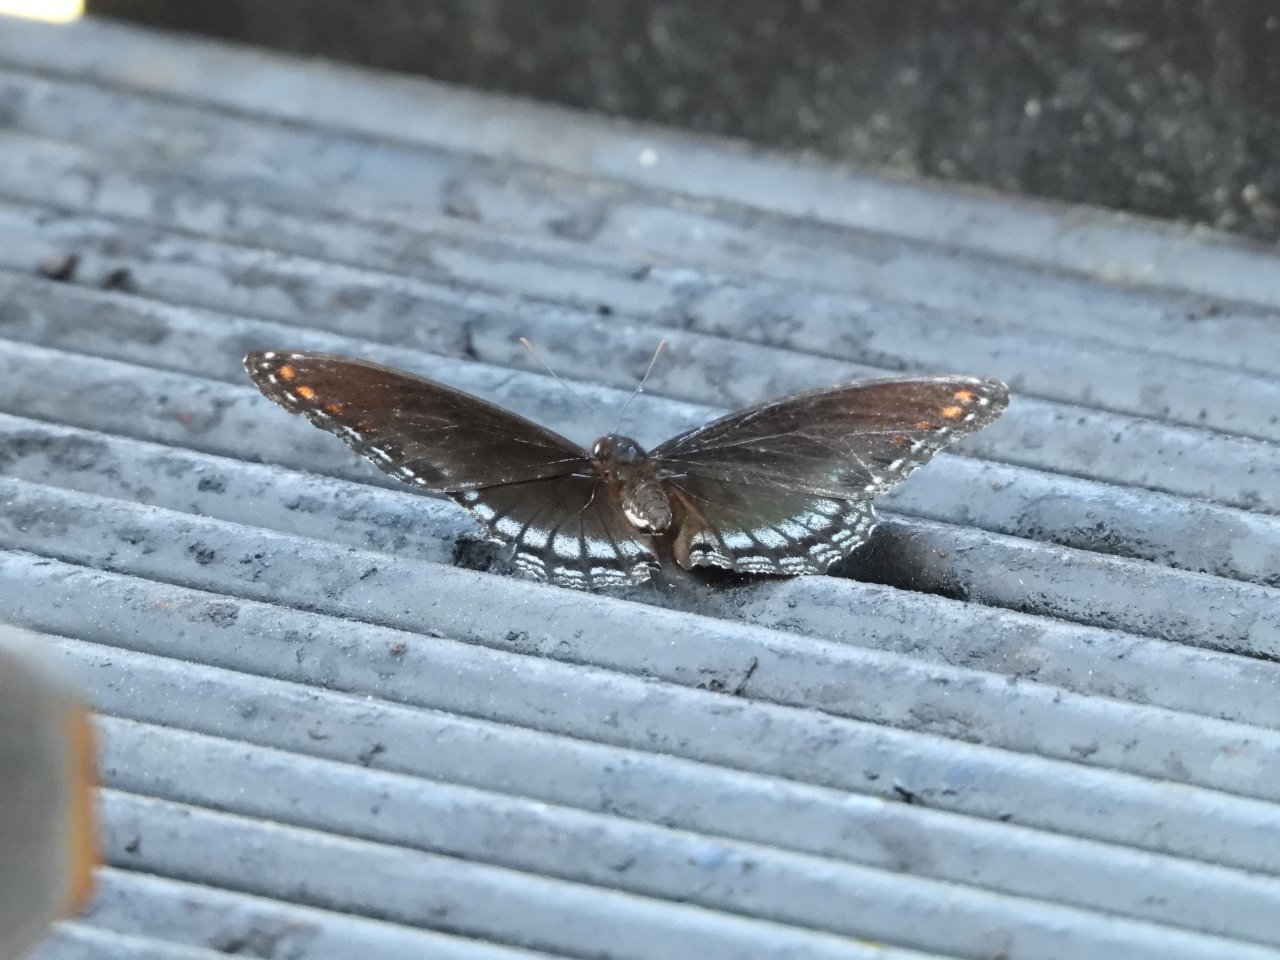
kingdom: Animalia
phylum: Arthropoda
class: Insecta
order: Lepidoptera
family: Nymphalidae
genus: Limenitis
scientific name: Limenitis arthemis
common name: Red-spotted Admiral
